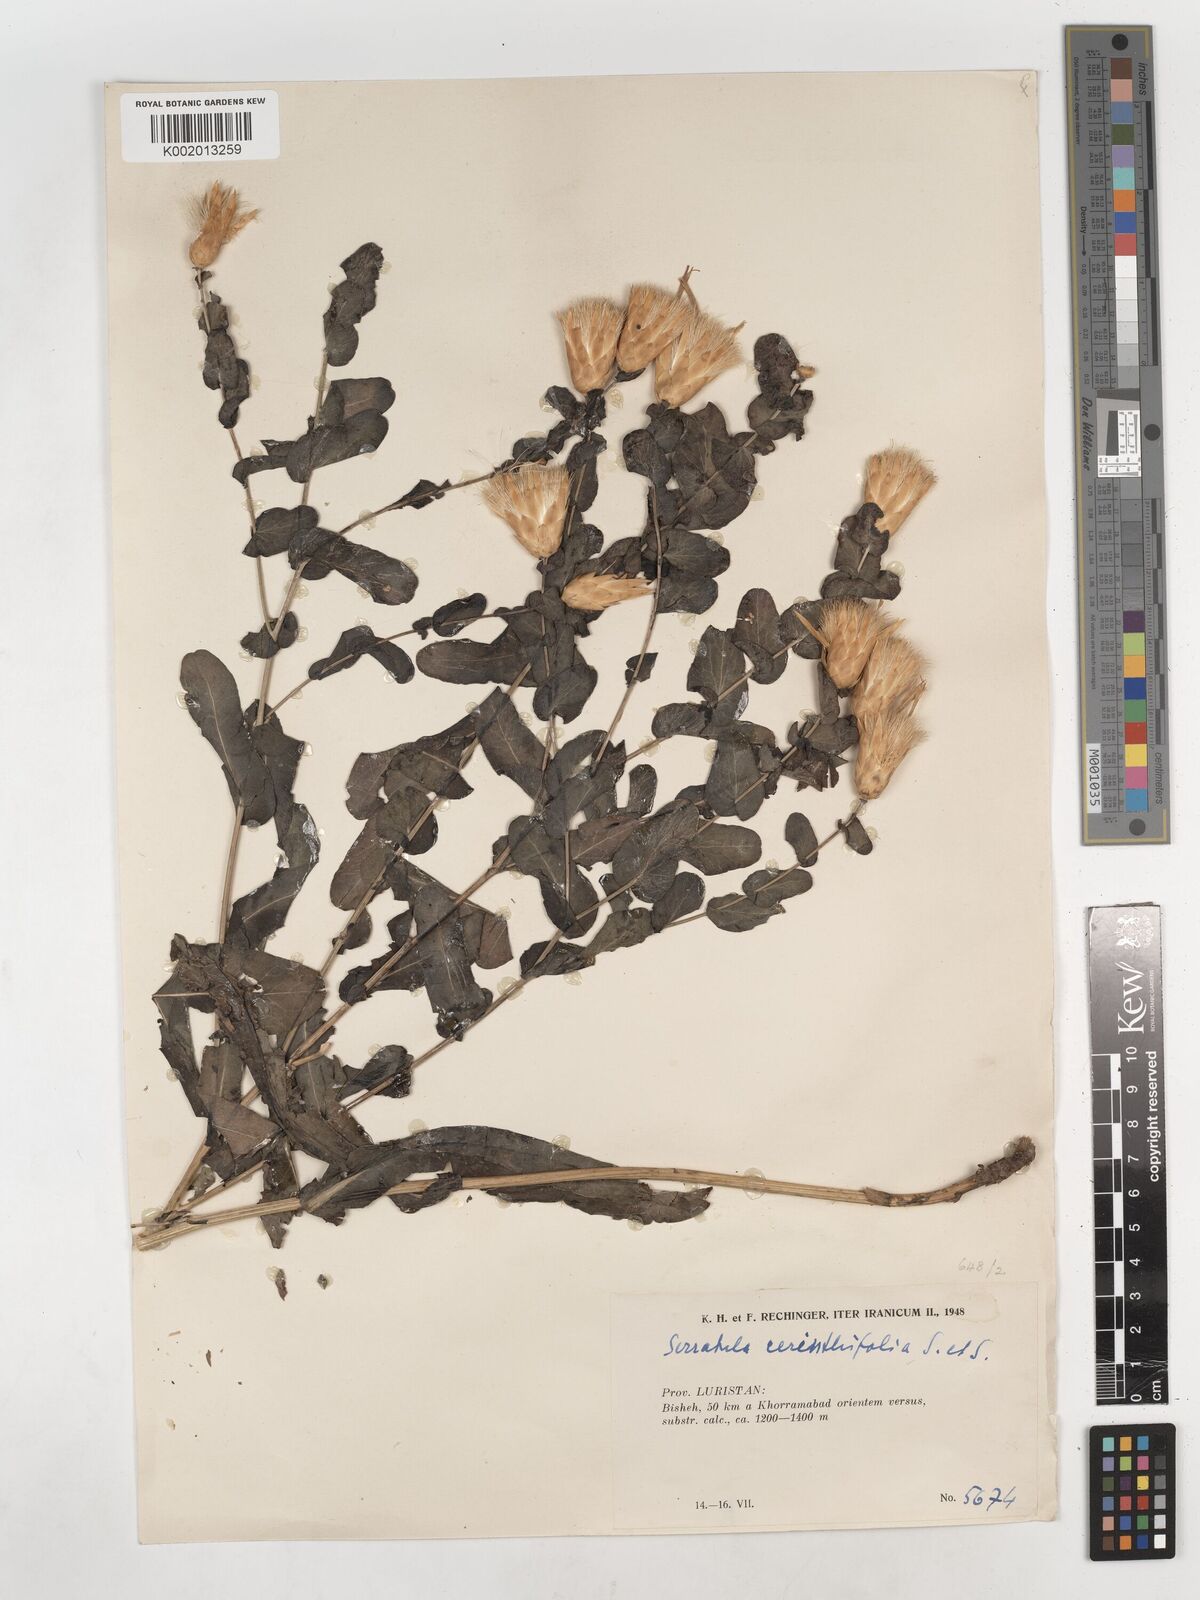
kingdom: Plantae
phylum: Tracheophyta
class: Magnoliopsida
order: Asterales
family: Asteraceae
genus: Klasea
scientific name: Klasea cerinthifolia
